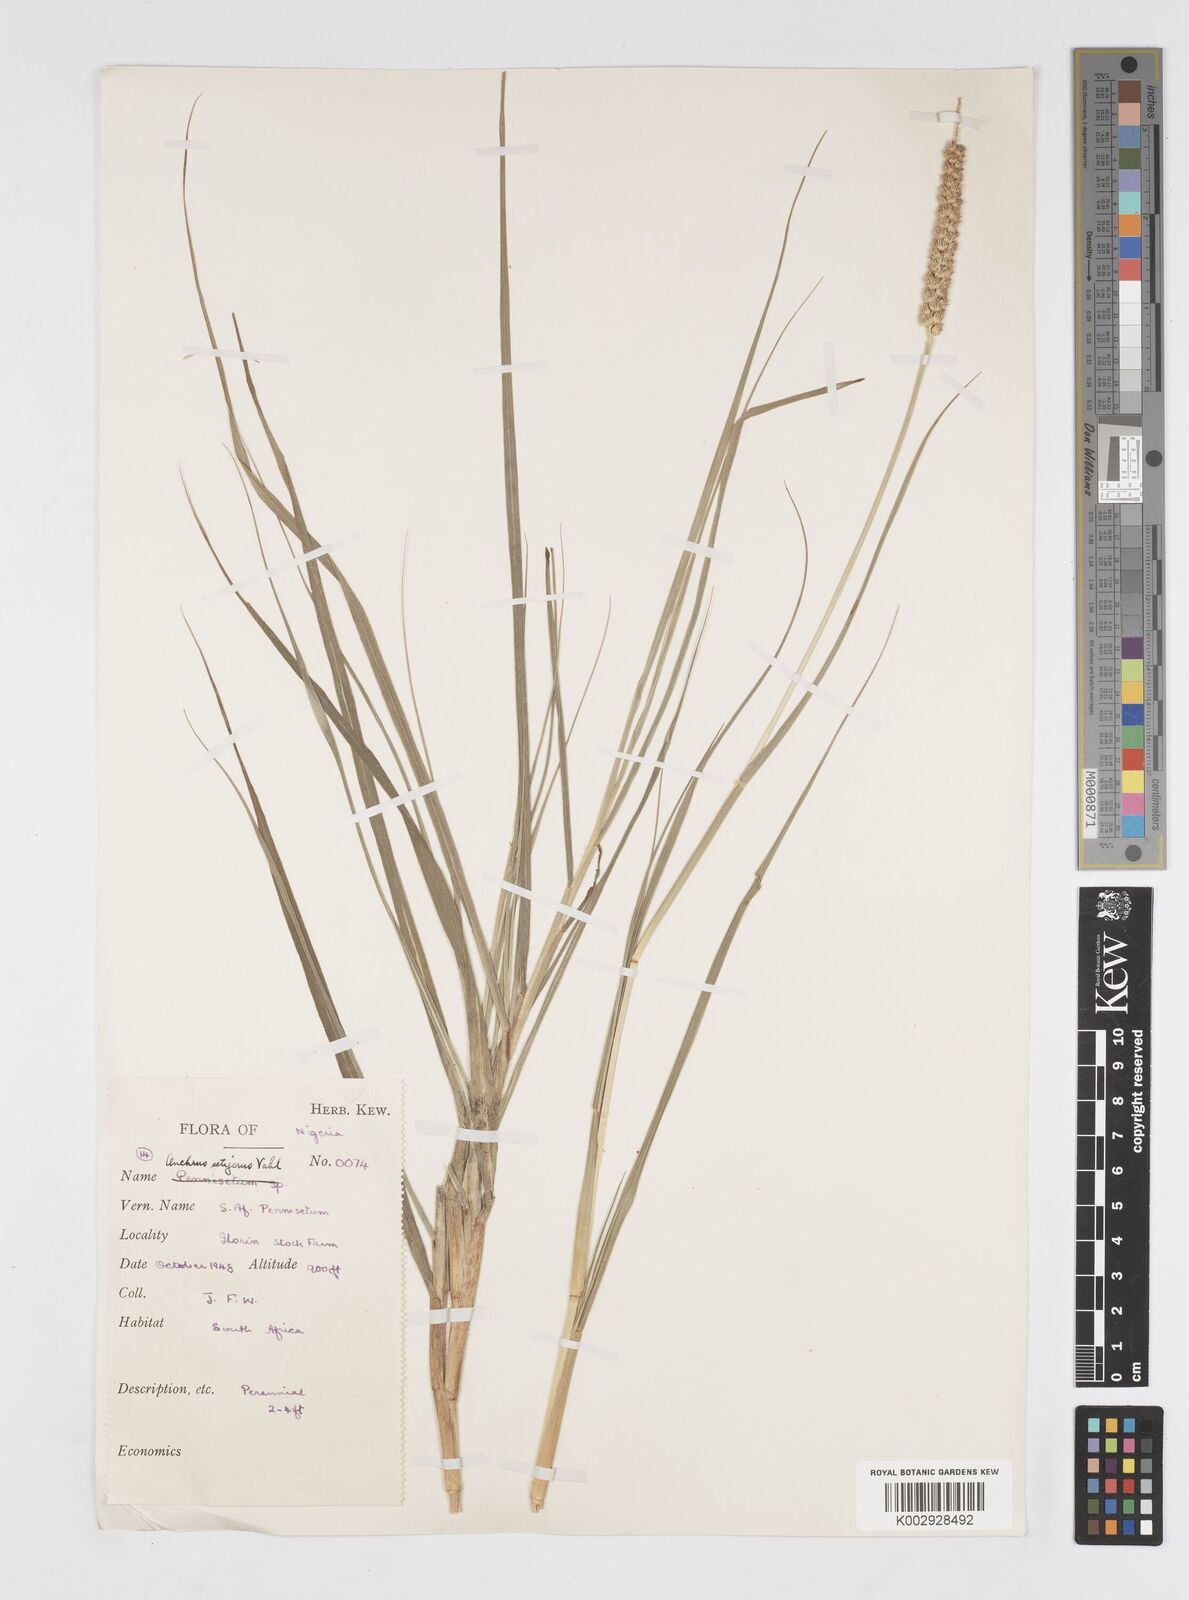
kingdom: Plantae
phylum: Tracheophyta
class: Liliopsida
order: Poales
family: Poaceae
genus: Cenchrus
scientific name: Cenchrus setigerus
